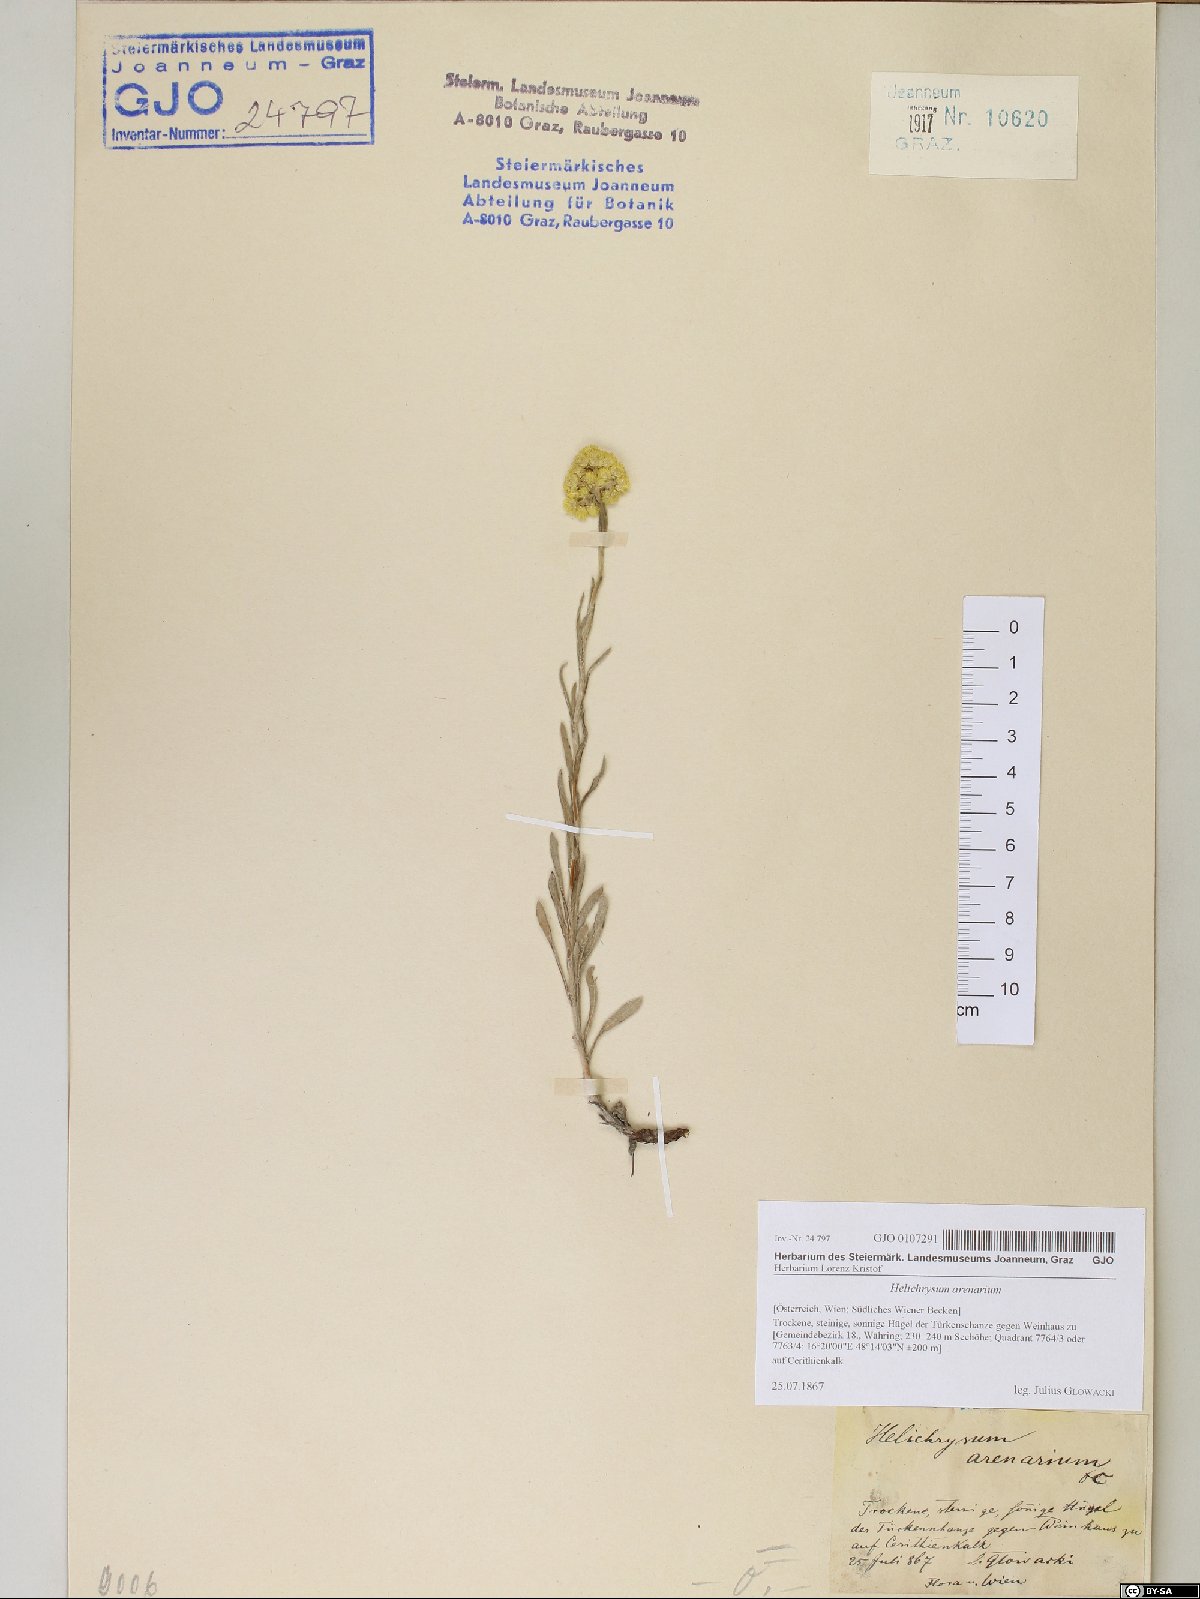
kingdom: Plantae
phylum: Tracheophyta
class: Magnoliopsida
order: Asterales
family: Asteraceae
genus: Helichrysum
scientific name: Helichrysum arenarium
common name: Strawflower
